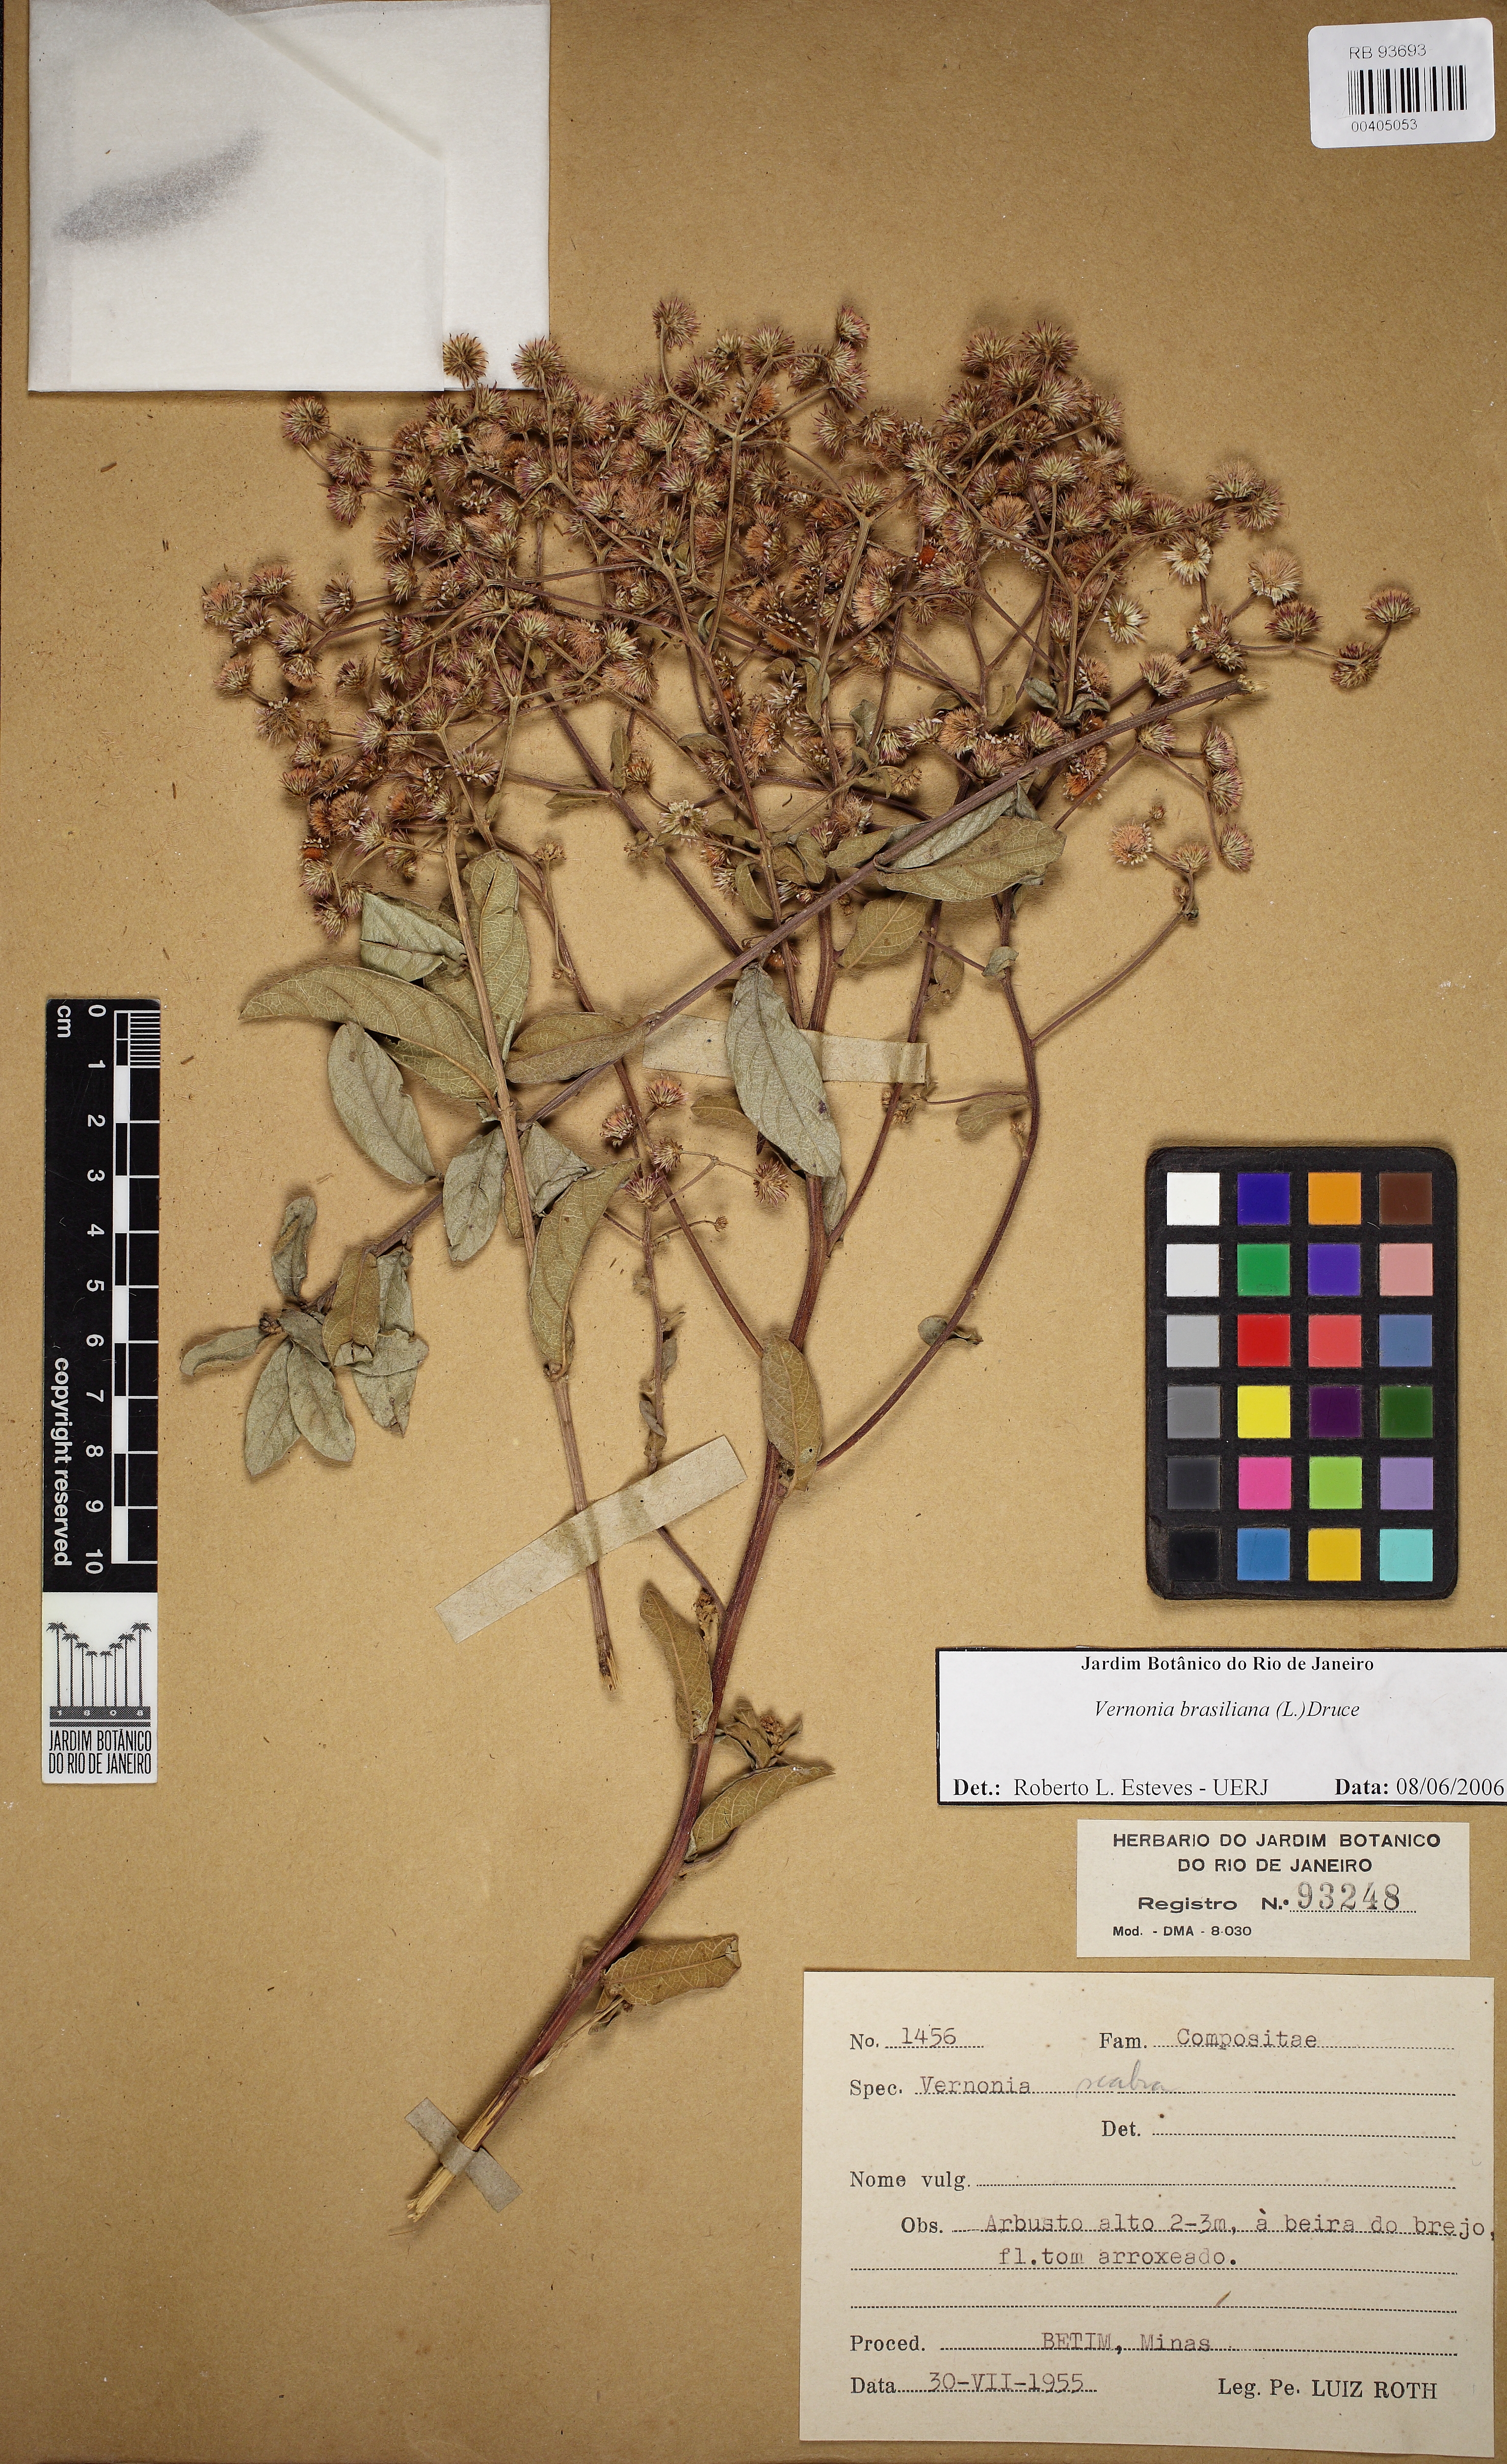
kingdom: Plantae
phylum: Tracheophyta
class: Magnoliopsida
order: Asterales
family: Asteraceae
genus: Vernonanthura
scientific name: Vernonanthura
